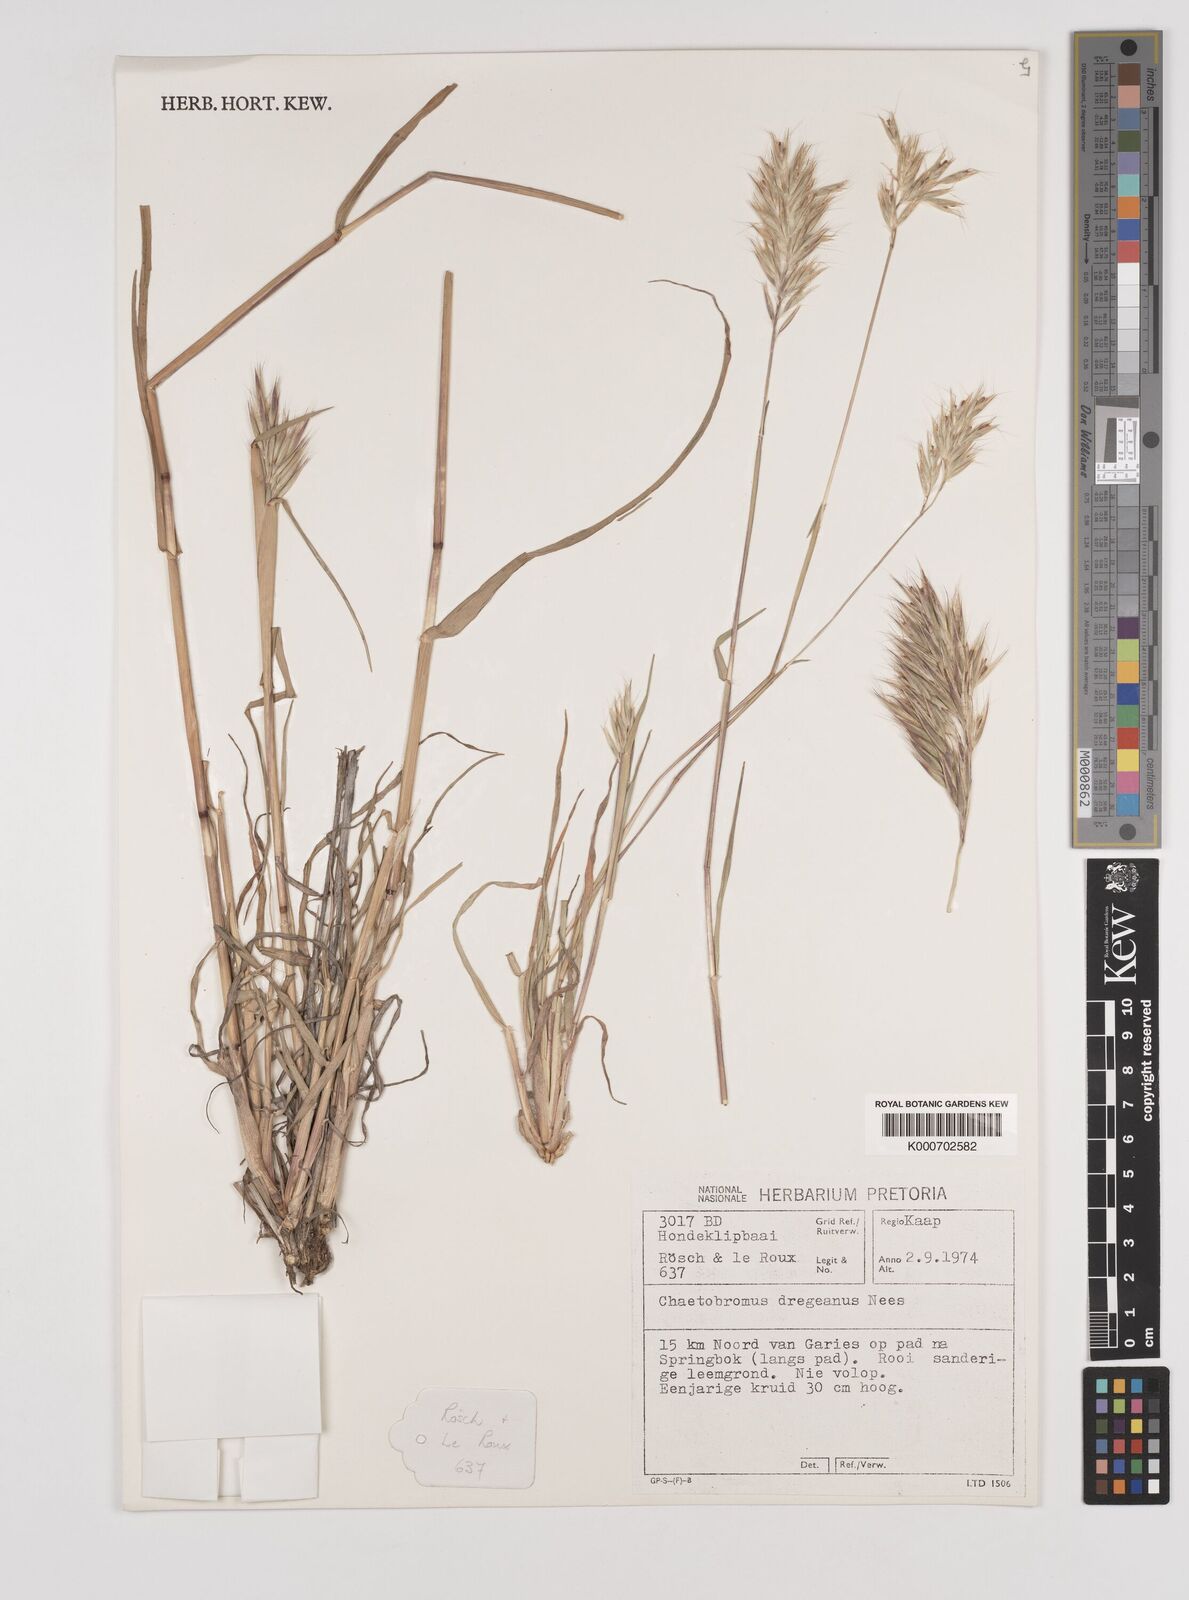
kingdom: Plantae
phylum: Tracheophyta
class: Liliopsida
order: Poales
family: Poaceae
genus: Chaetobromus
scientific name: Chaetobromus involucratus
